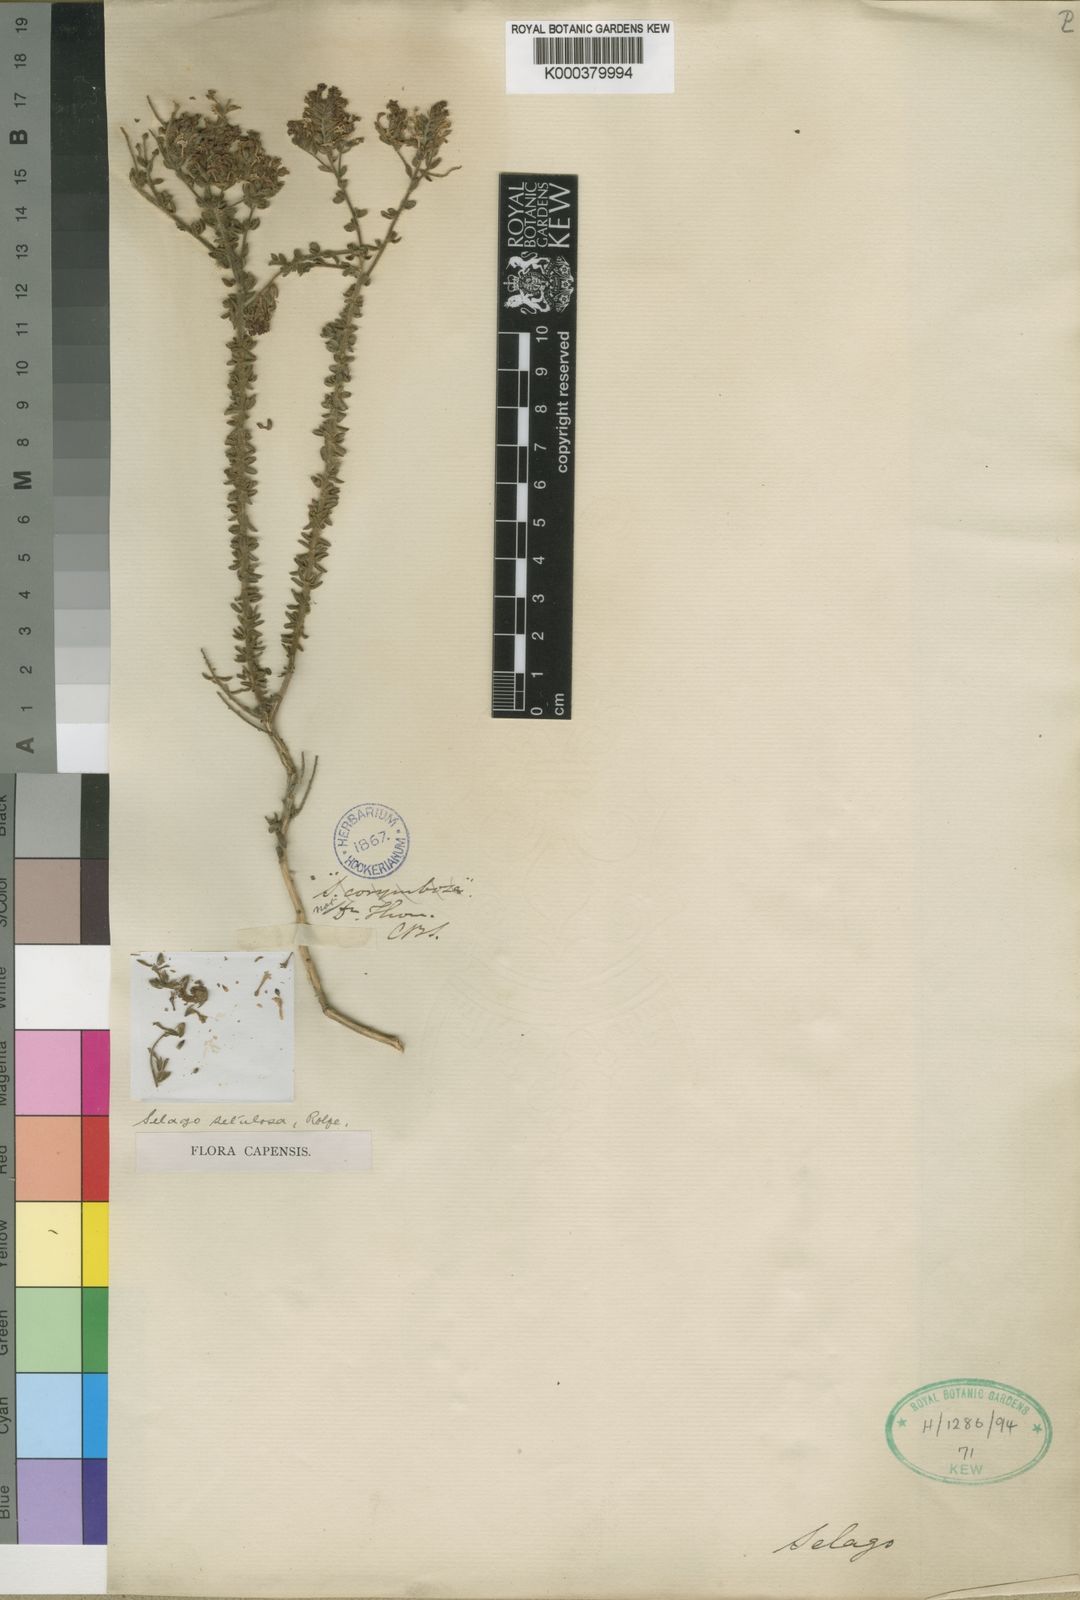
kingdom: Plantae
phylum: Tracheophyta
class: Magnoliopsida
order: Lamiales
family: Scrophulariaceae
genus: Selago
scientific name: Selago setulosa
